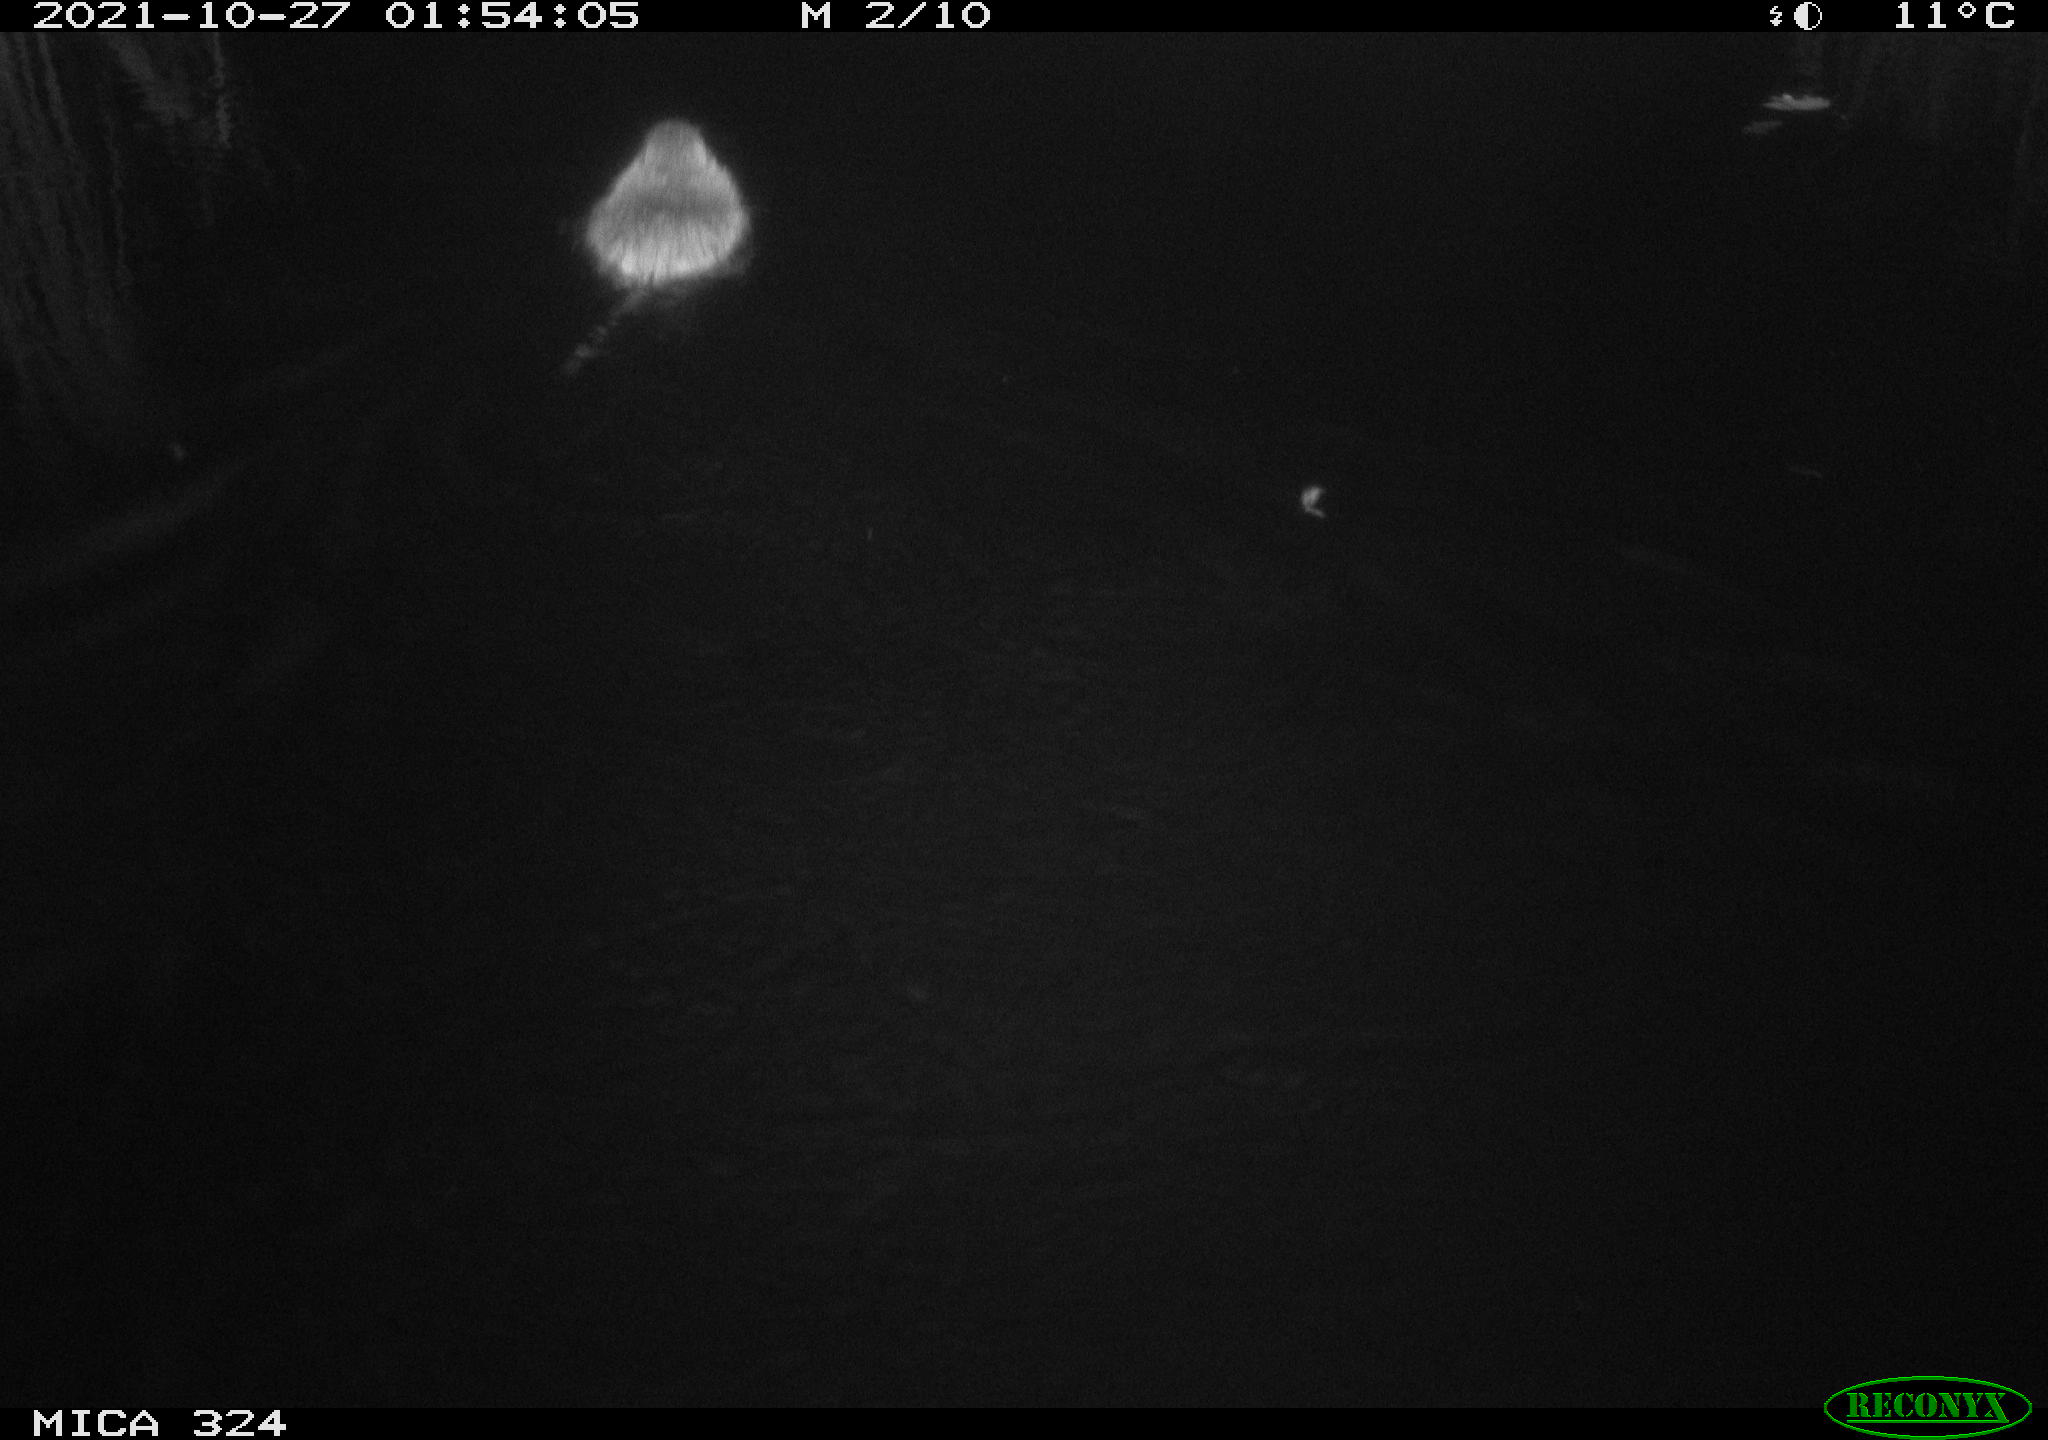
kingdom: Animalia
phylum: Chordata
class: Mammalia
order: Rodentia
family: Cricetidae
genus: Ondatra
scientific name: Ondatra zibethicus
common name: Muskrat
